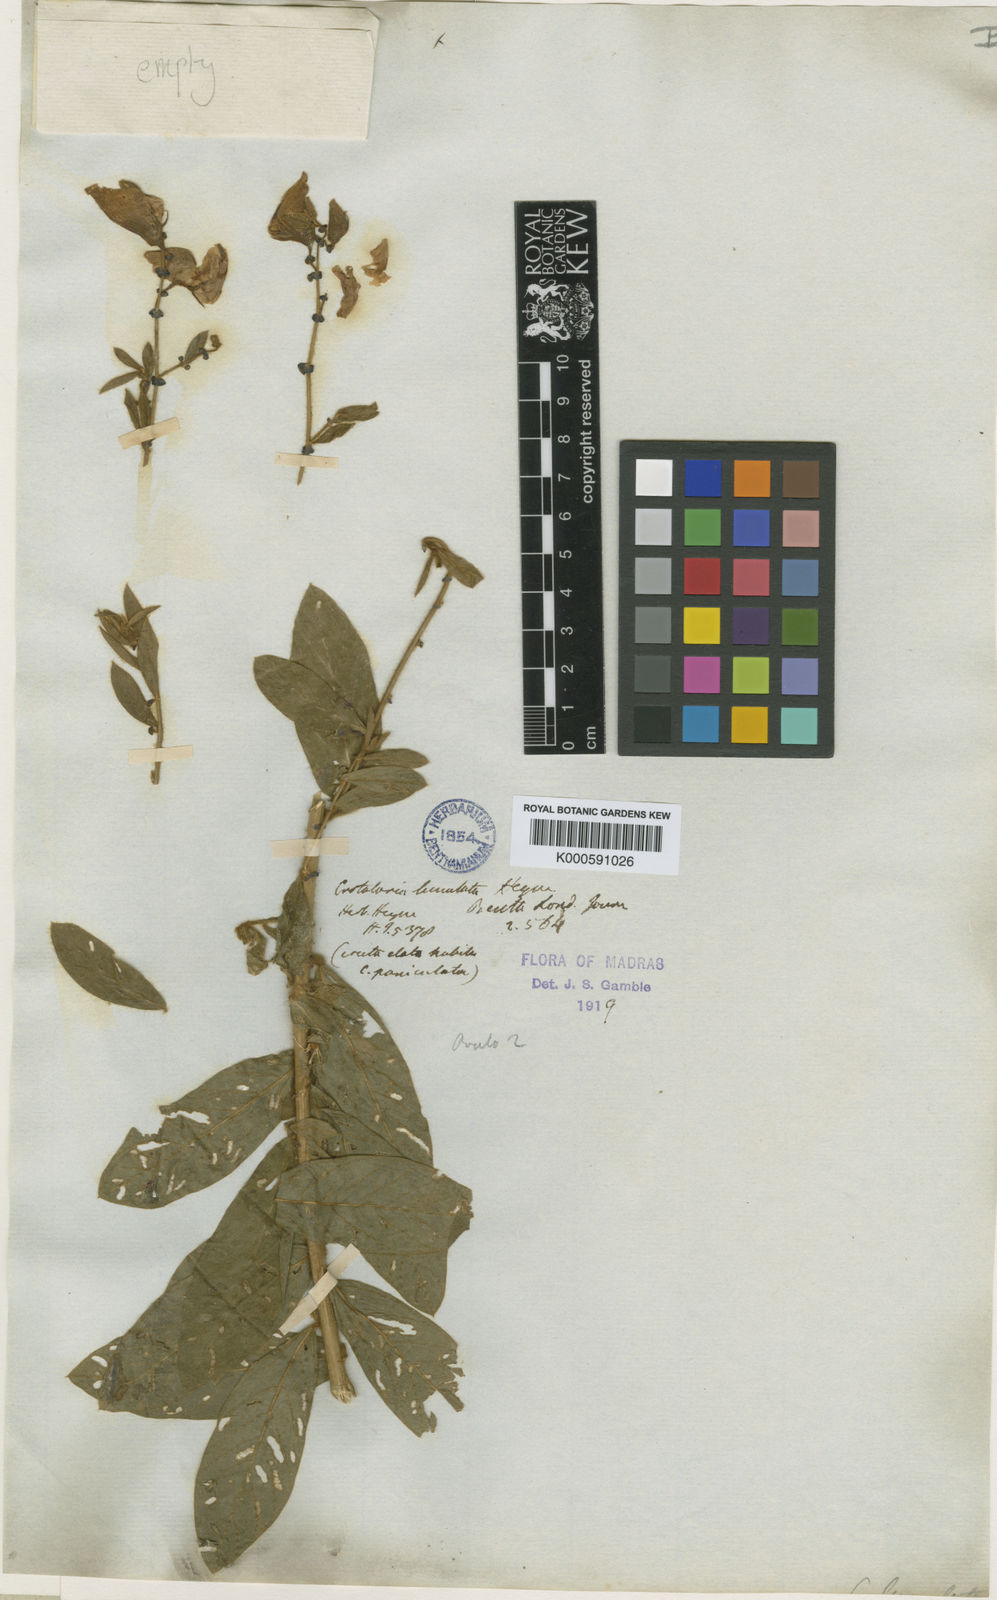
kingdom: Plantae
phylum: Tracheophyta
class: Magnoliopsida
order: Fabales
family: Fabaceae
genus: Crotalaria
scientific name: Crotalaria
